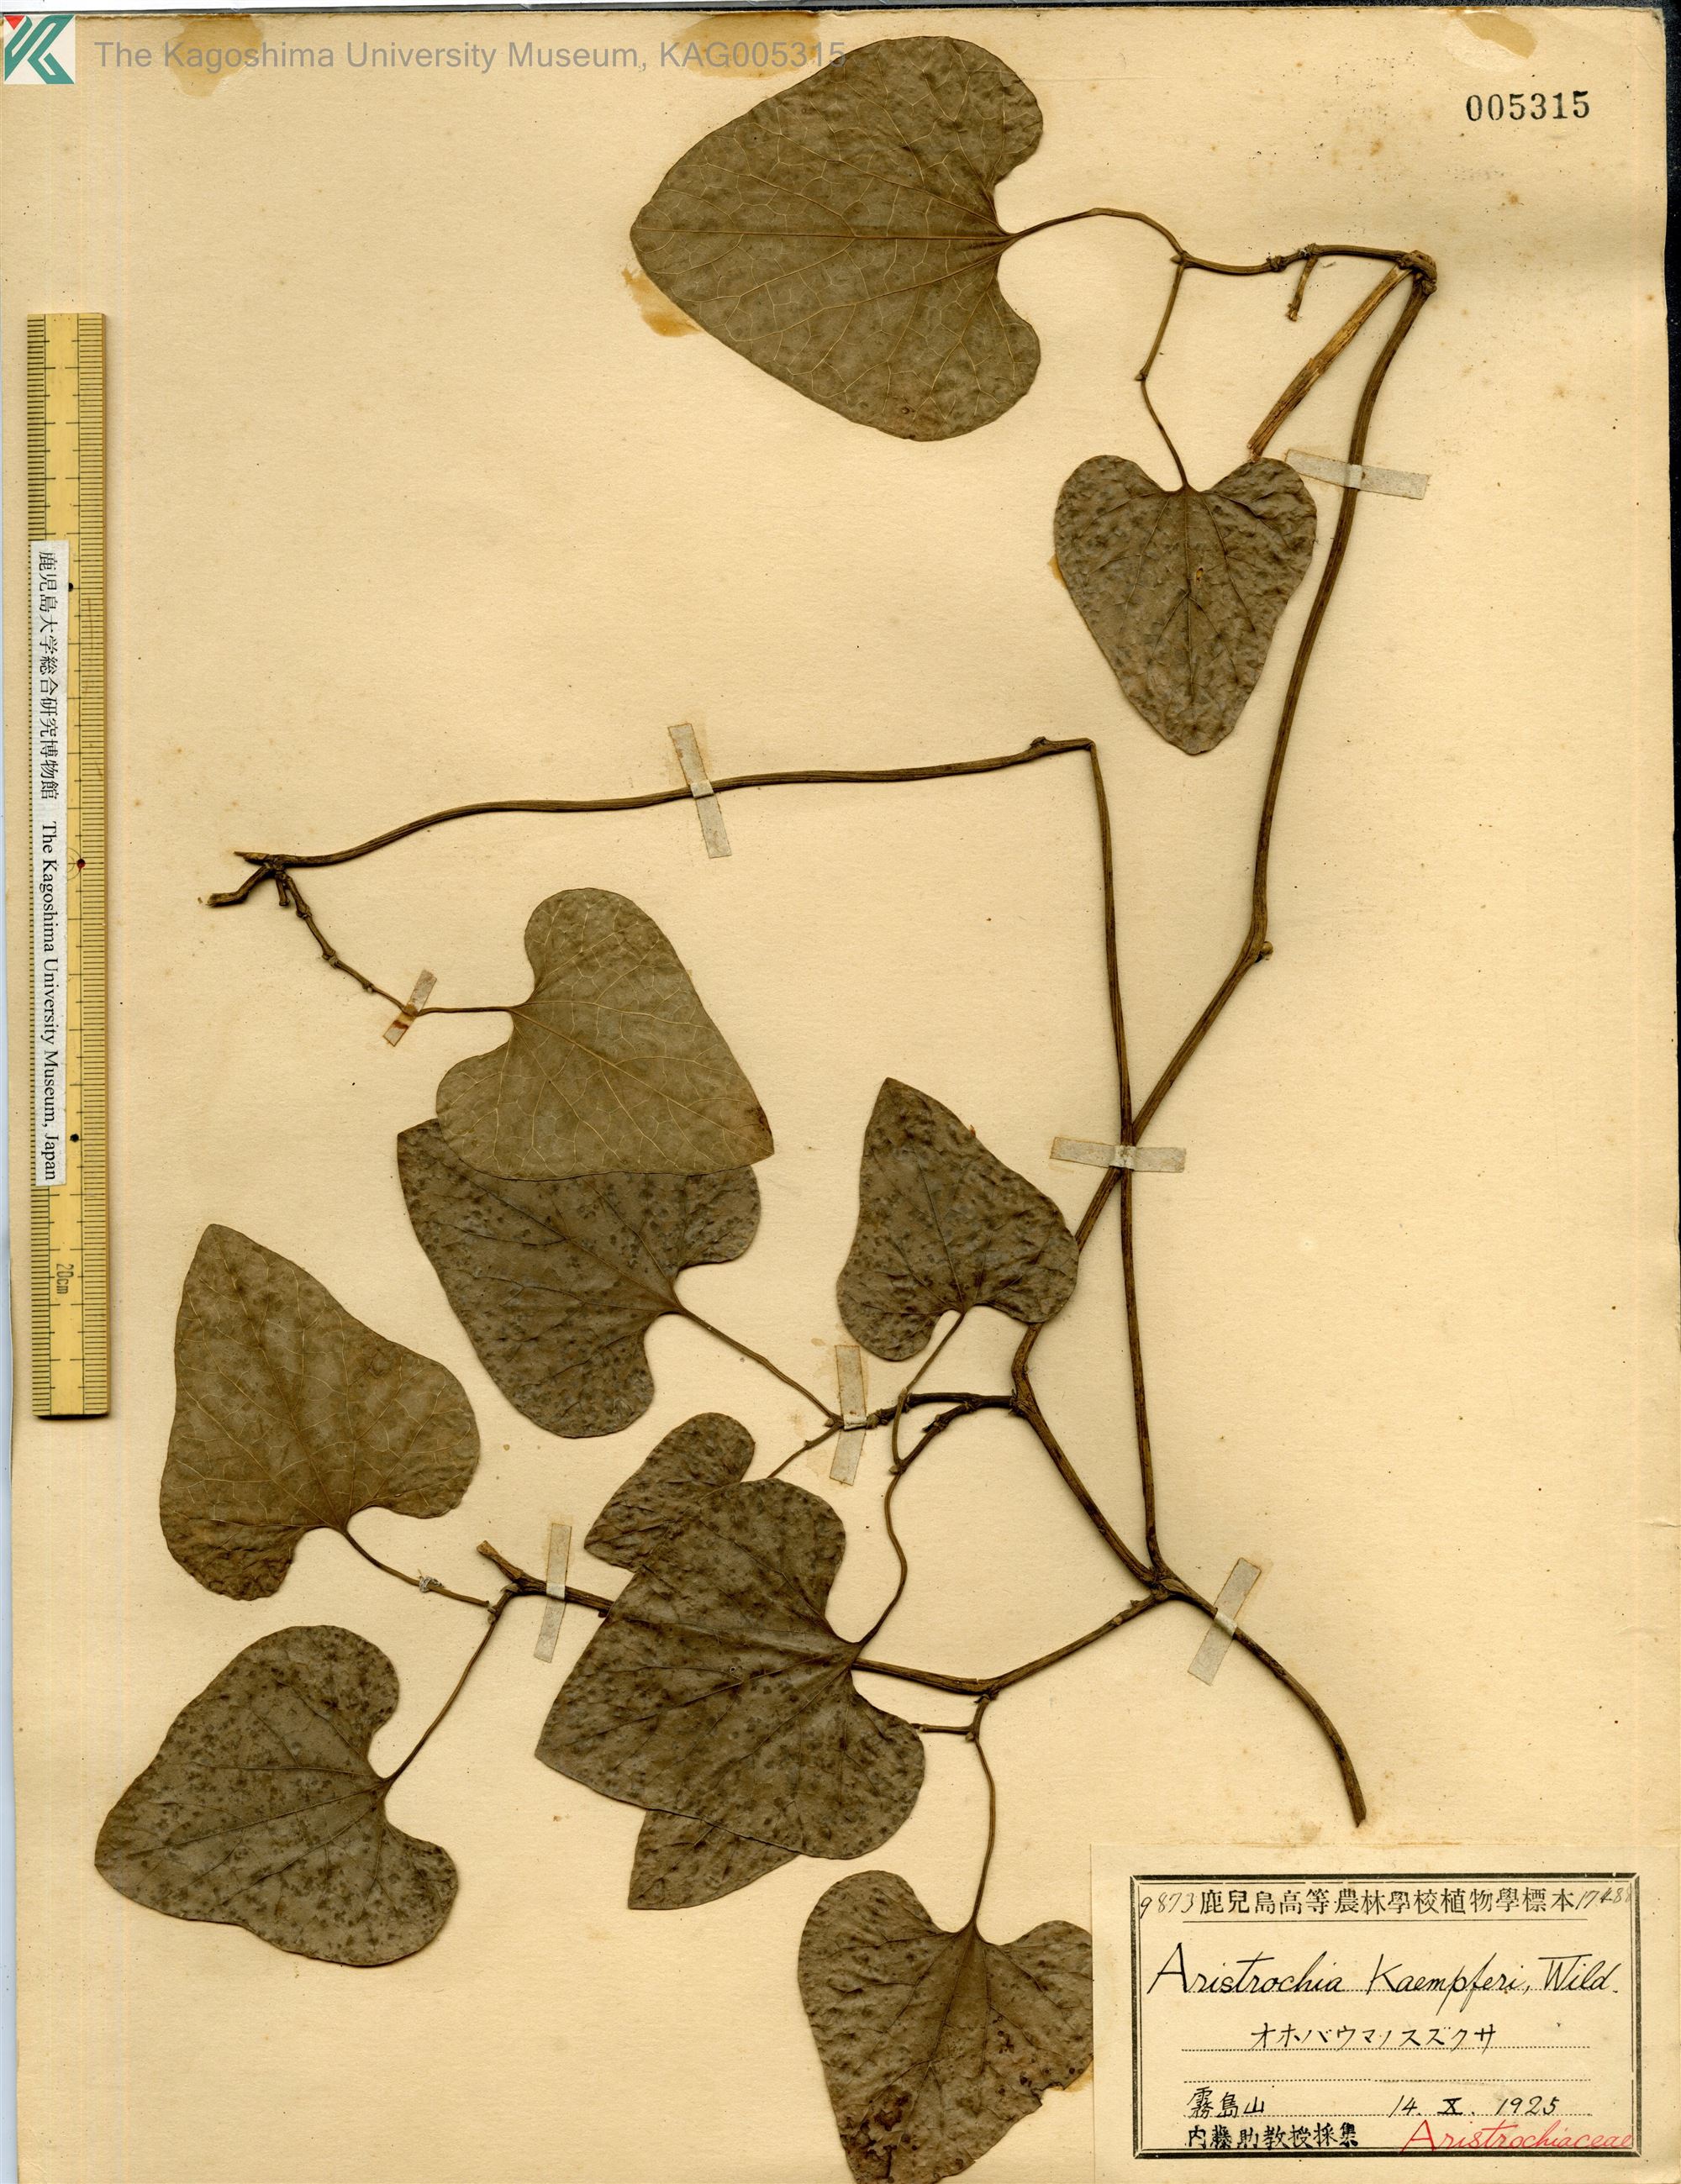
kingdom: Plantae
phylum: Tracheophyta
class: Magnoliopsida
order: Piperales
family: Aristolochiaceae
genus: Isotrema
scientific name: Isotrema kaempferi
